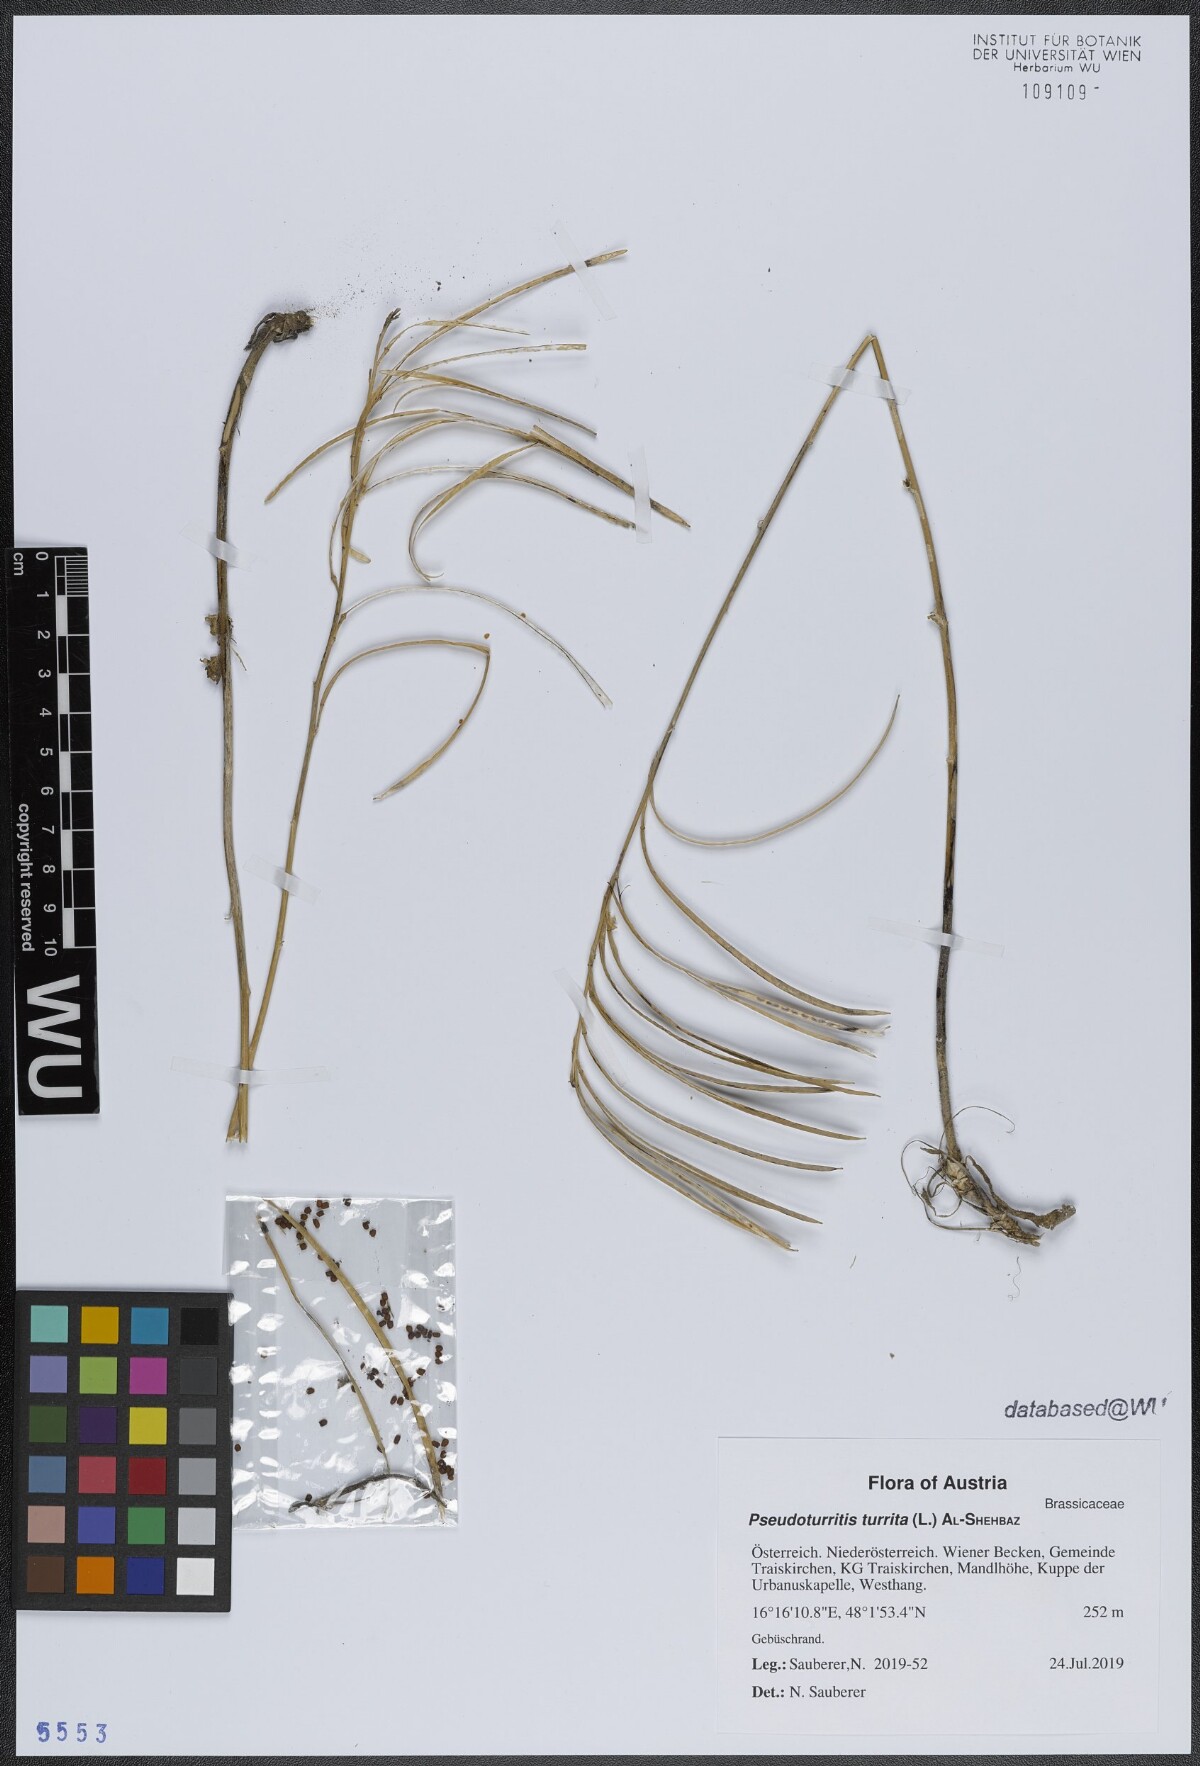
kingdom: Plantae
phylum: Tracheophyta
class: Magnoliopsida
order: Brassicales
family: Brassicaceae
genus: Pseudoturritis
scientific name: Pseudoturritis turrita
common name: Tower cress
